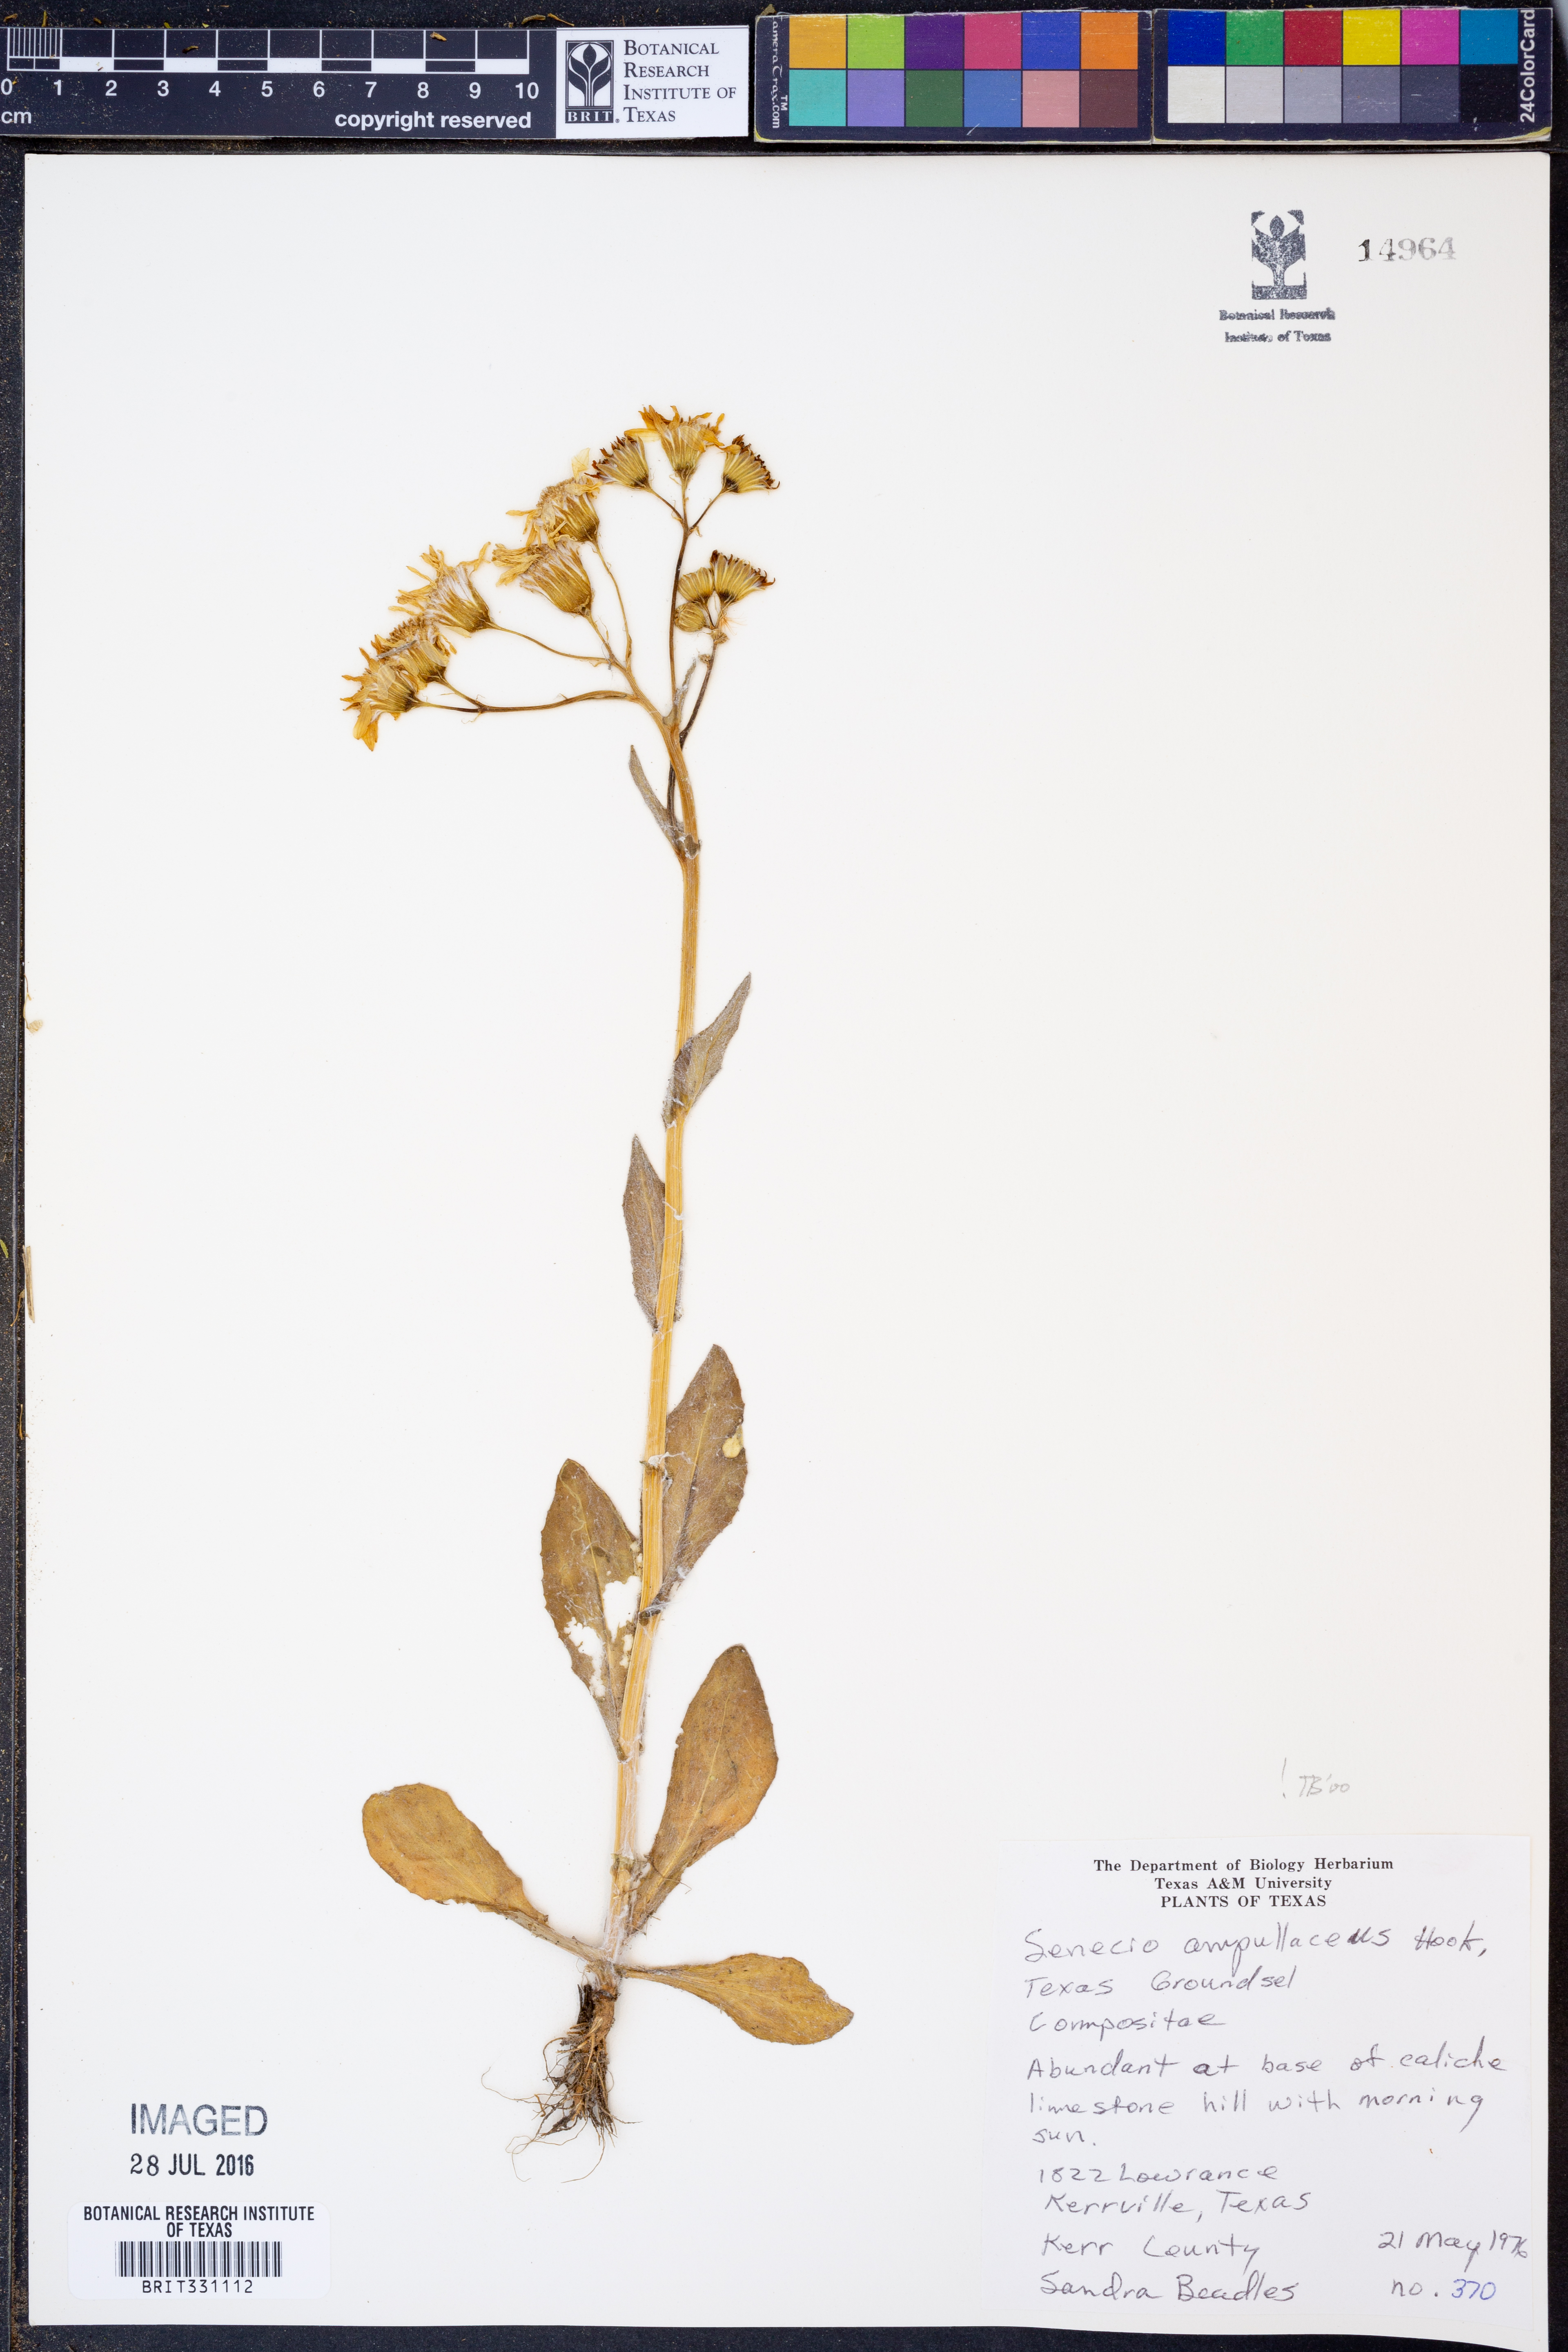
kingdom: Plantae
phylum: Tracheophyta
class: Magnoliopsida
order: Asterales
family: Asteraceae
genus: Senecio
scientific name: Senecio ampullaceus
